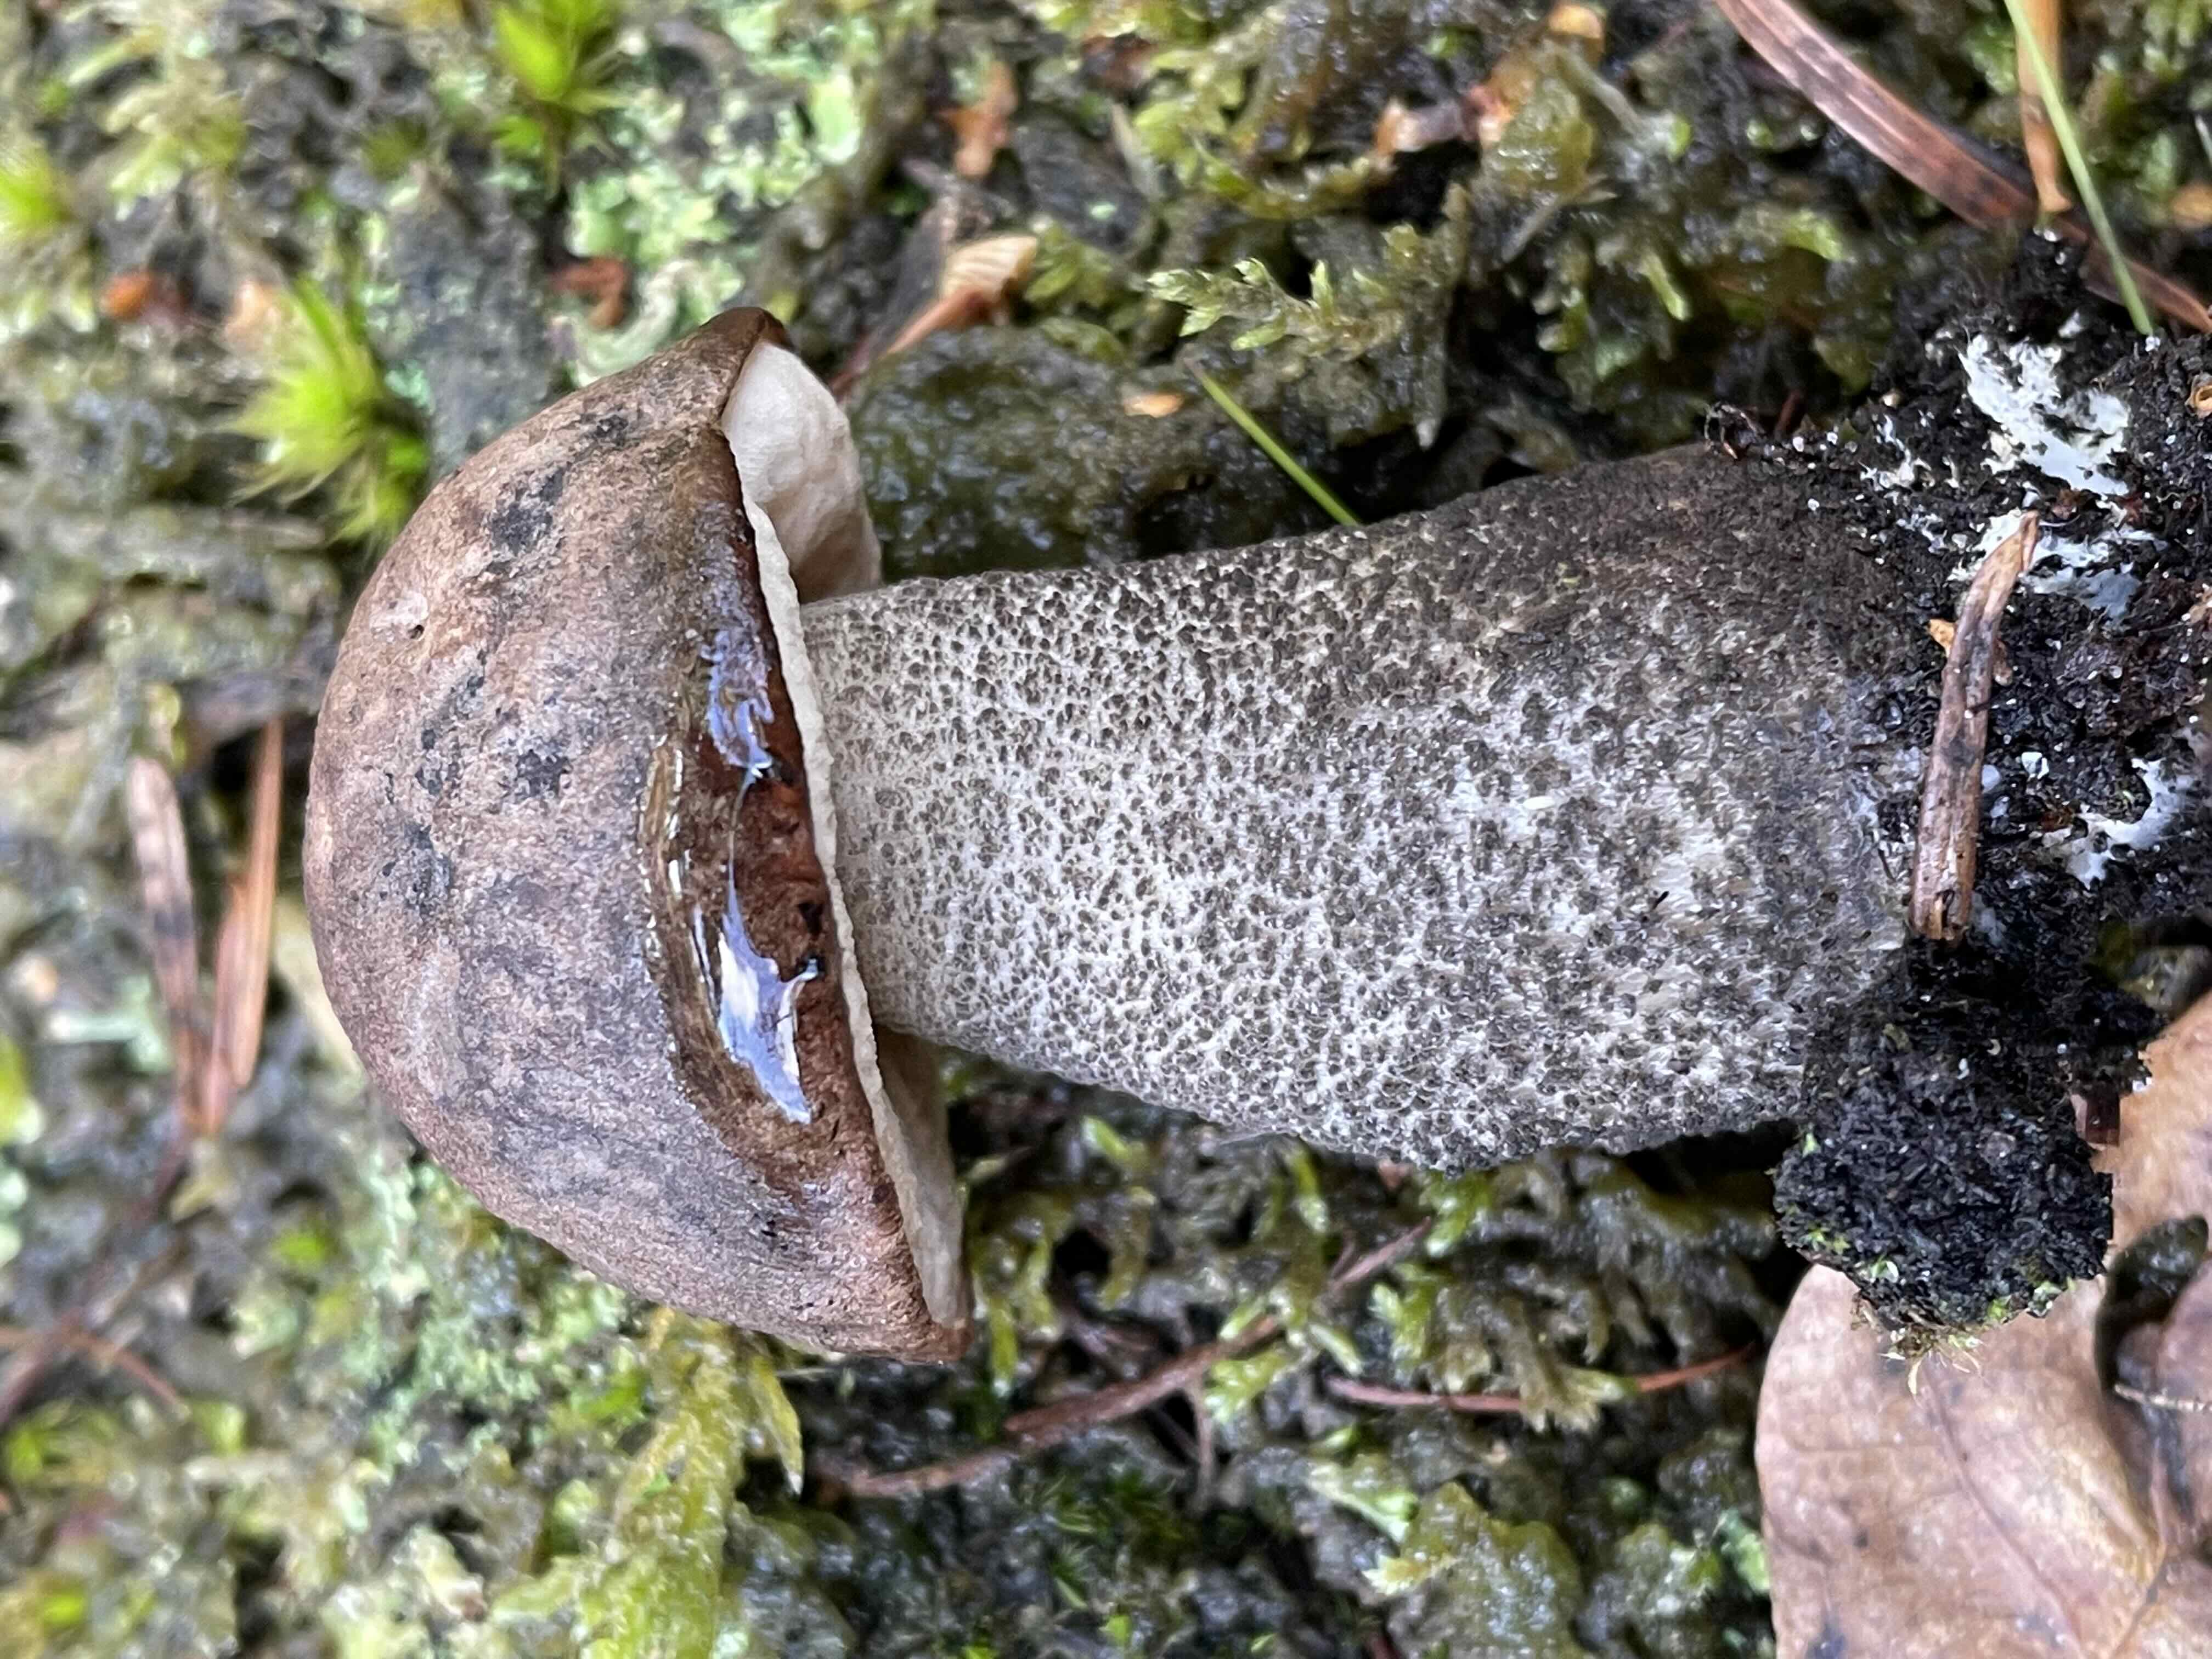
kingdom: Fungi
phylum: Basidiomycota
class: Agaricomycetes
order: Boletales
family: Boletaceae
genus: Leccinum
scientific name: Leccinum scabrum
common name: brun skælrørhat
